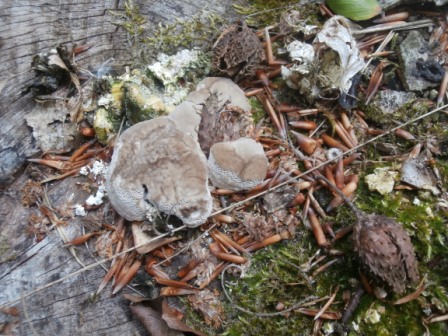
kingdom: Fungi
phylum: Basidiomycota
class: Agaricomycetes
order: Polyporales
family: Polyporaceae
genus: Trametes
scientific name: Trametes gibbosa
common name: puklet læderporesvamp
